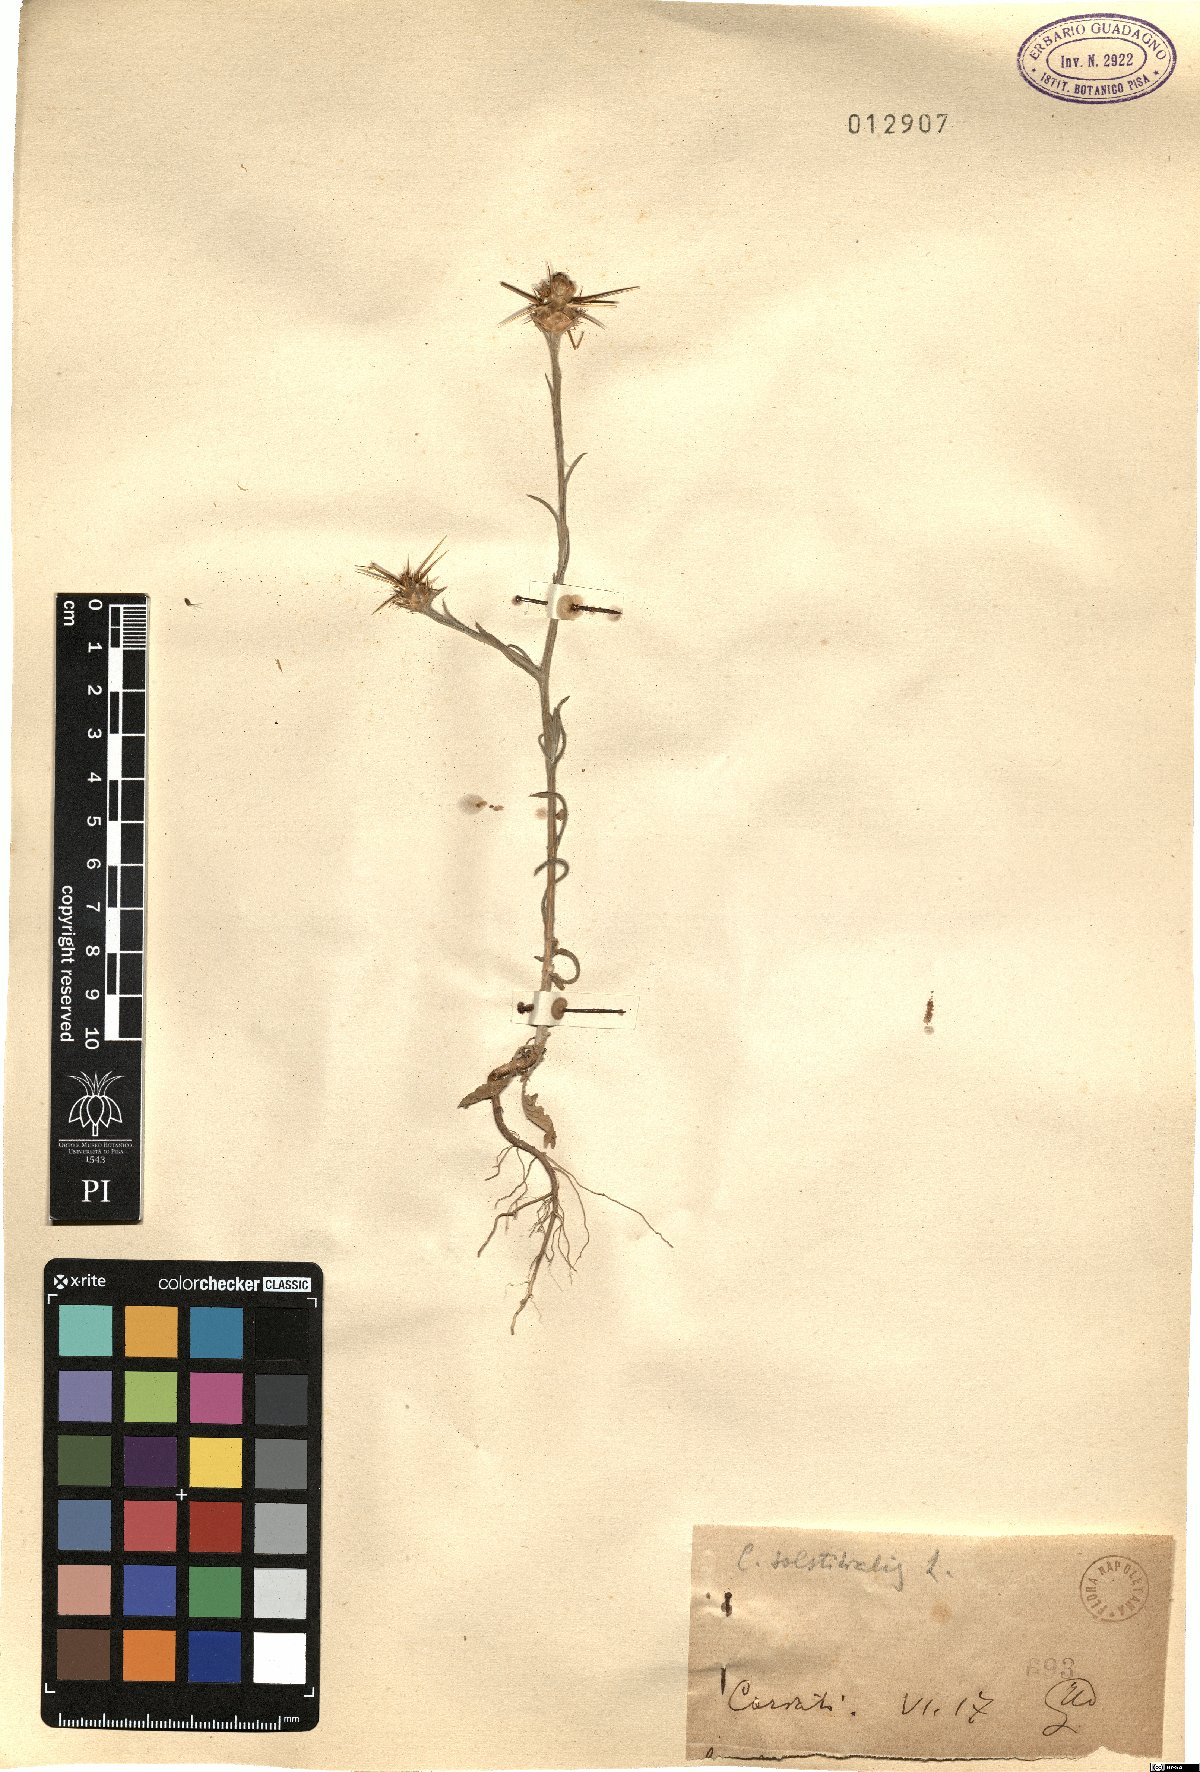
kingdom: Plantae
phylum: Tracheophyta
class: Magnoliopsida
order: Asterales
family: Asteraceae
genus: Centaurea
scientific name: Centaurea solstitialis
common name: Yellow star-thistle
